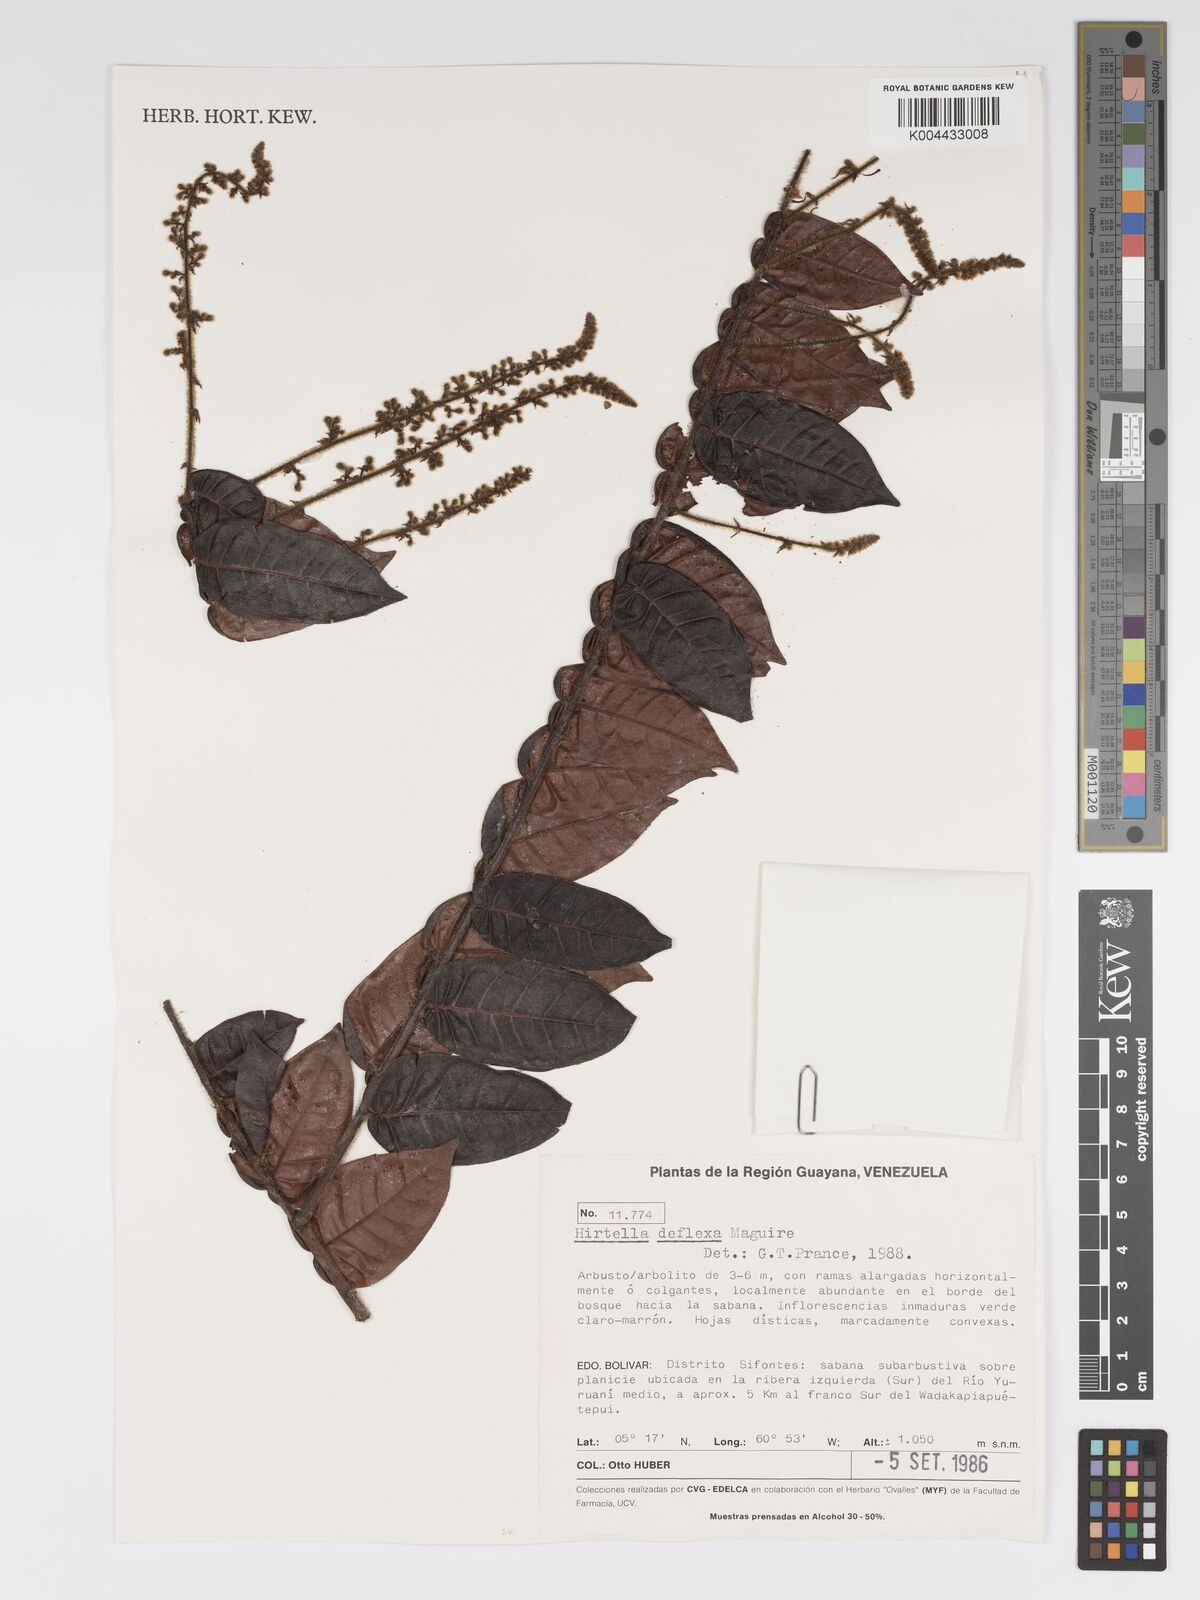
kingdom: Plantae
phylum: Tracheophyta
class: Magnoliopsida
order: Malpighiales
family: Chrysobalanaceae
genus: Hirtella
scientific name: Hirtella deflexa
